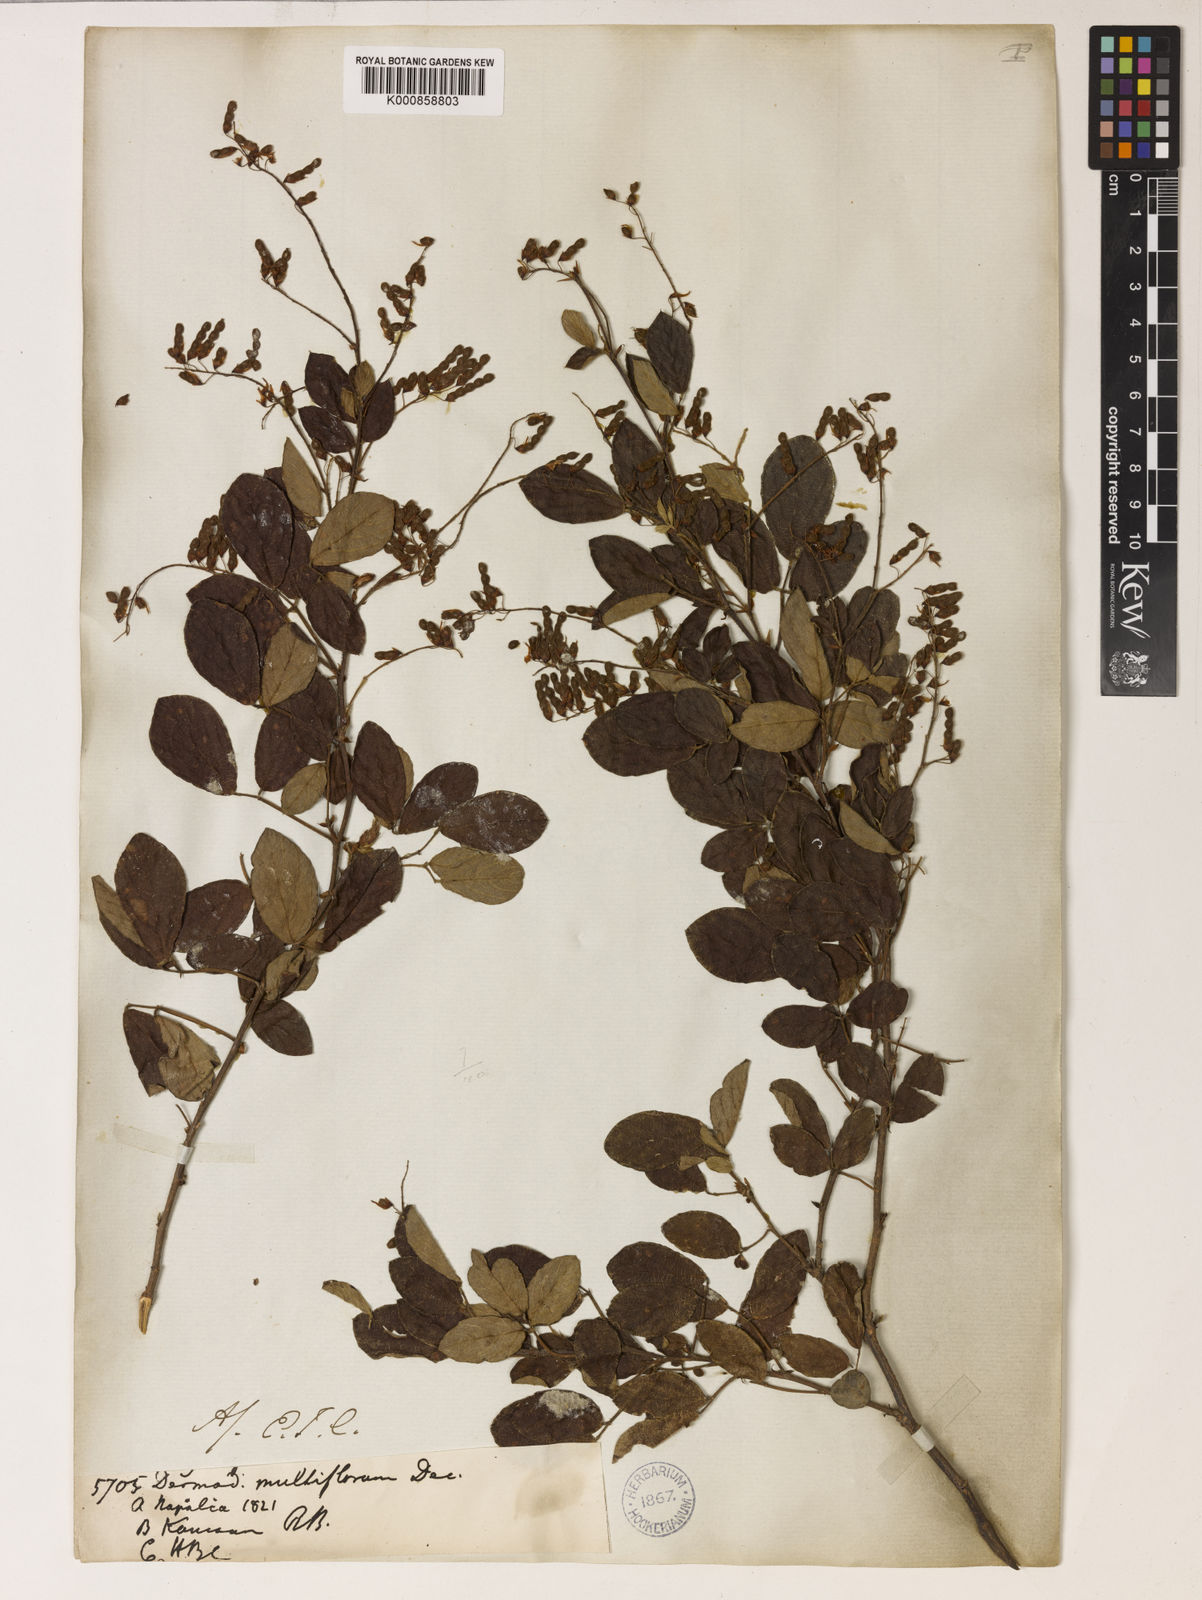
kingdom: Plantae
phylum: Tracheophyta
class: Magnoliopsida
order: Fabales
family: Fabaceae
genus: Ototropis
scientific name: Ototropis multiflora
